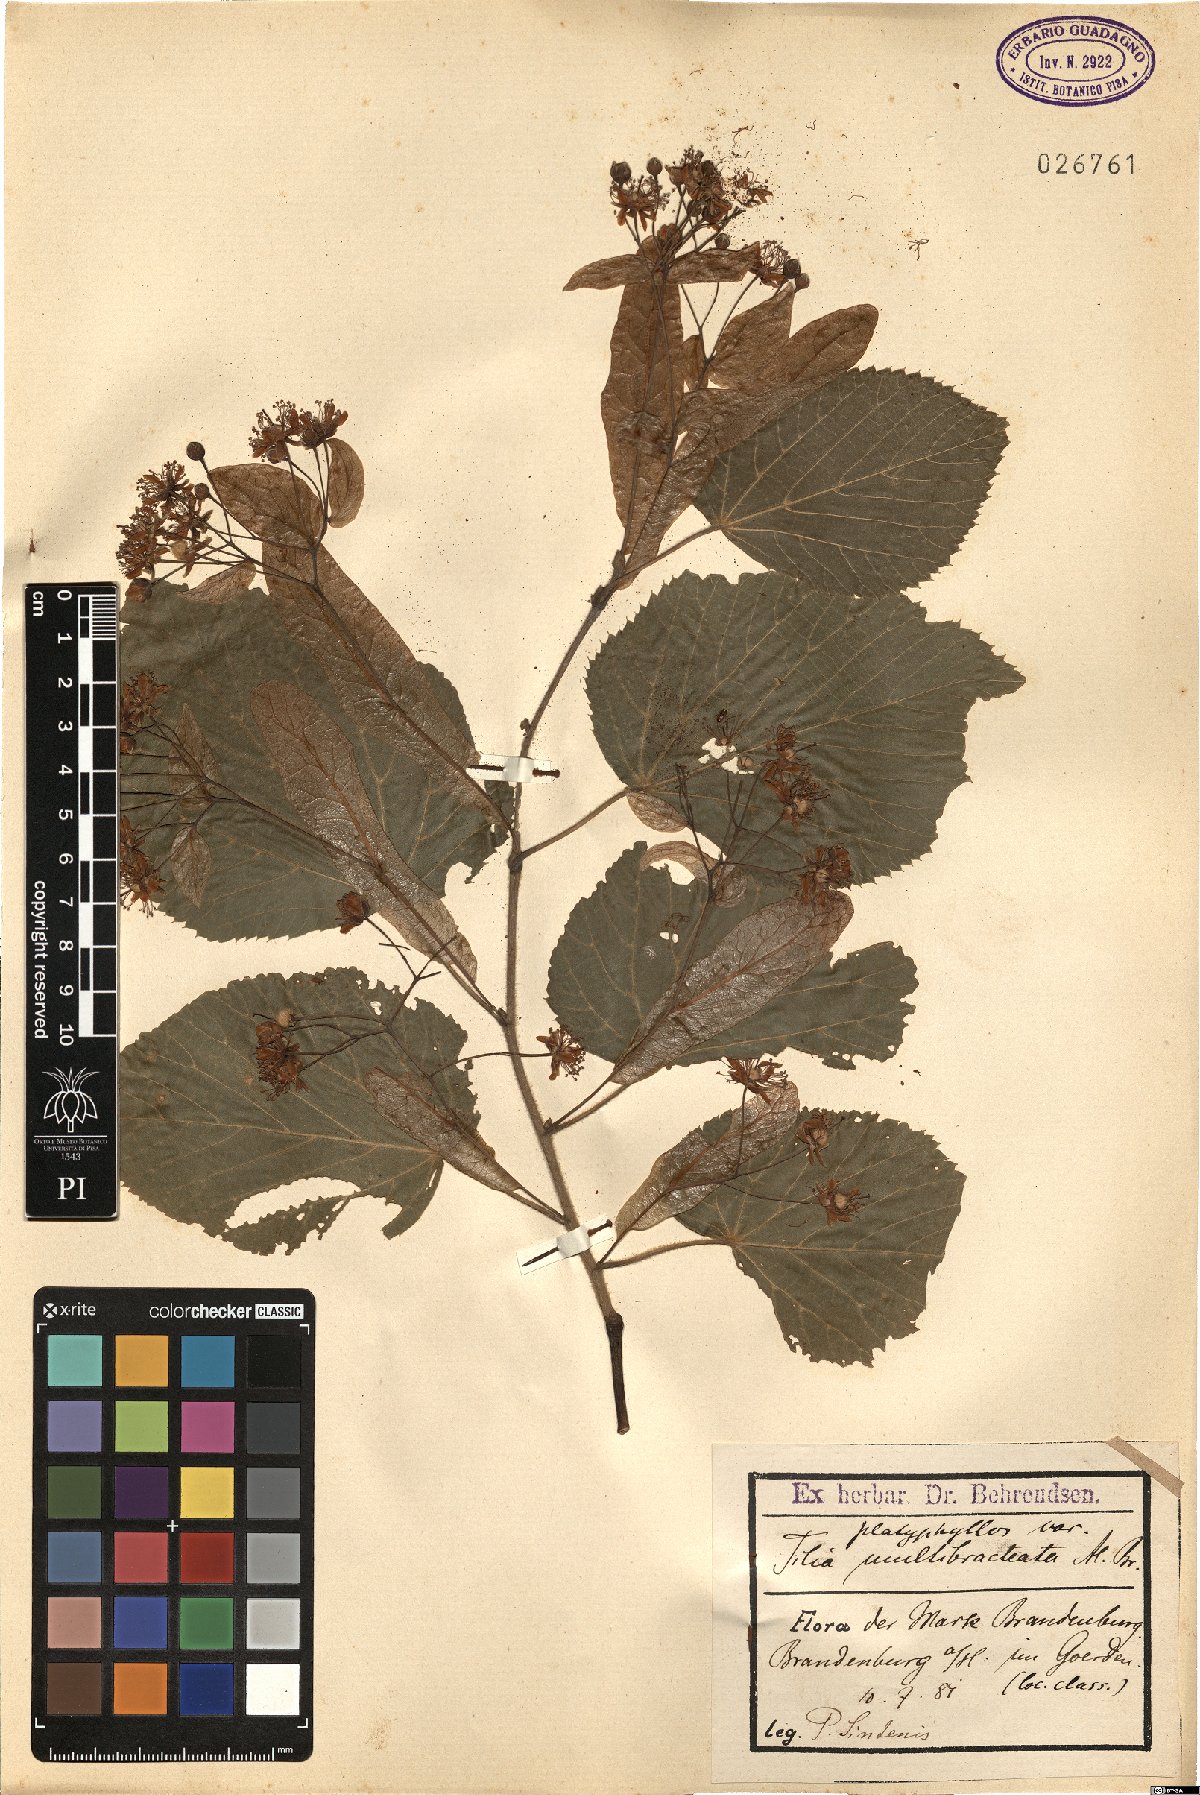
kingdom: Plantae
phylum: Tracheophyta
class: Magnoliopsida
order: Malvales
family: Malvaceae
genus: Tilia
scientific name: Tilia platyphyllos
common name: Large-leaved lime
